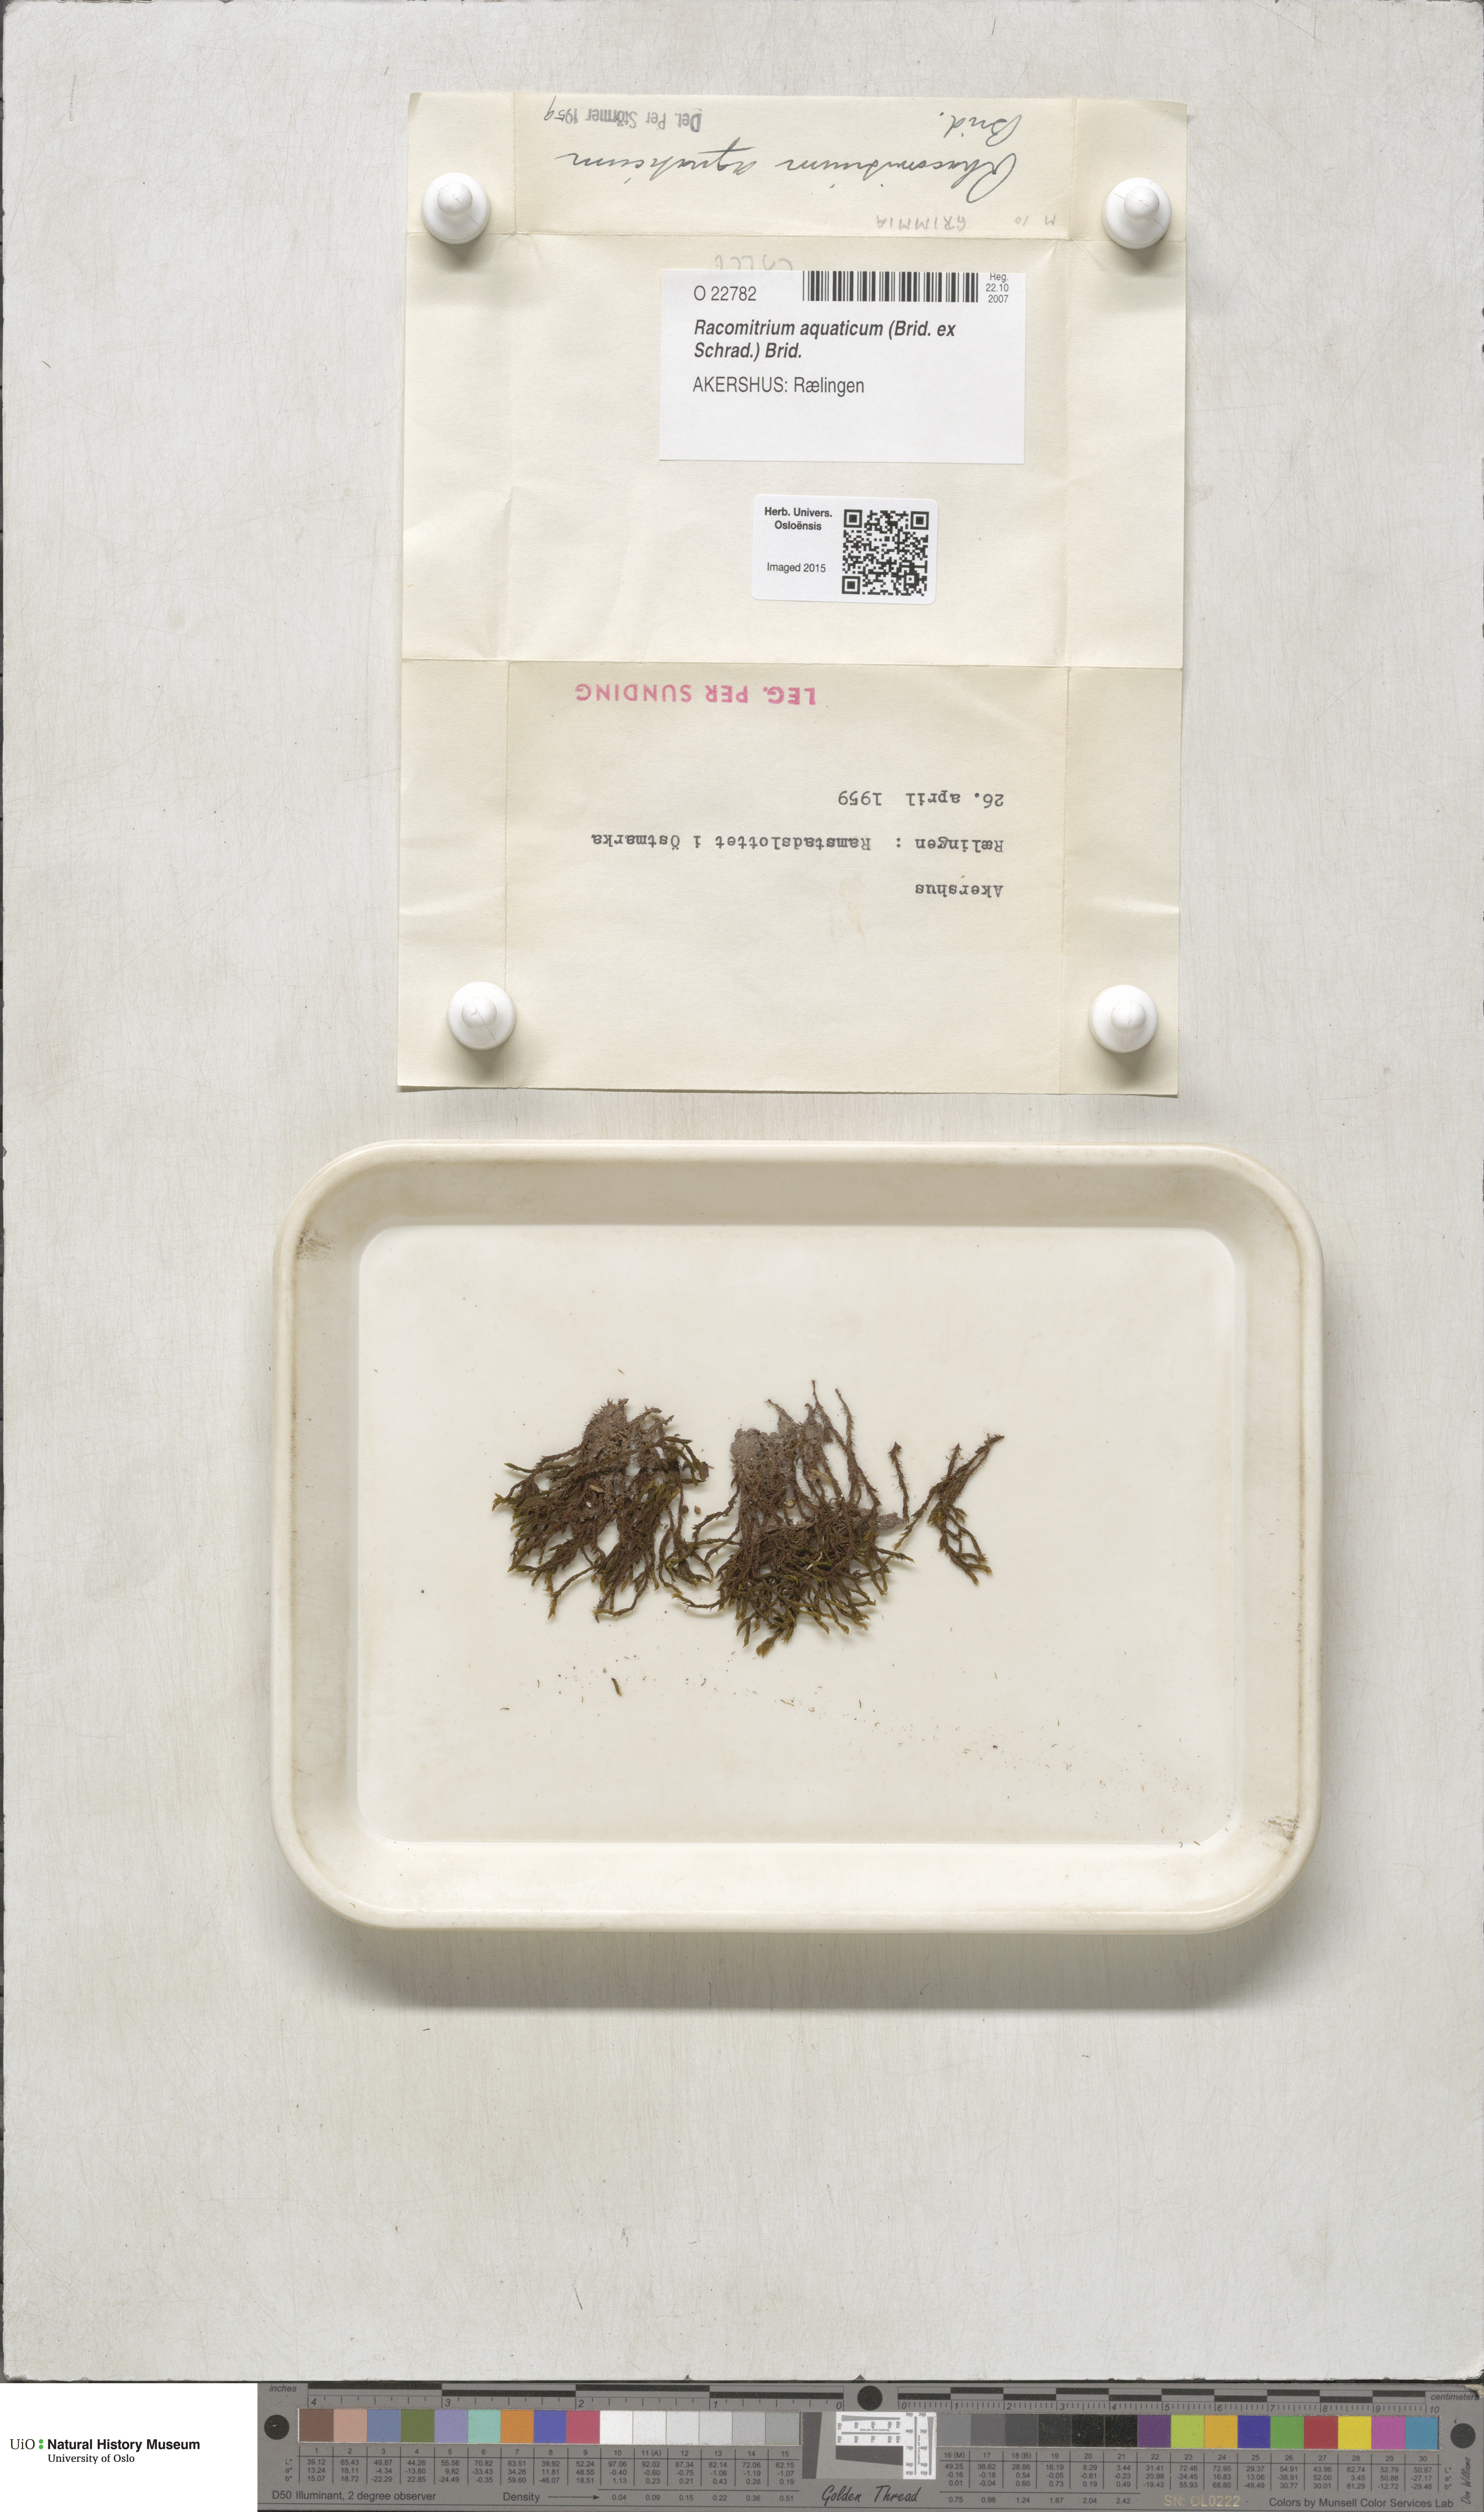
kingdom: Plantae
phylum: Bryophyta
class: Bryopsida
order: Grimmiales
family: Grimmiaceae
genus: Codriophorus
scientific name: Codriophorus aquaticus
